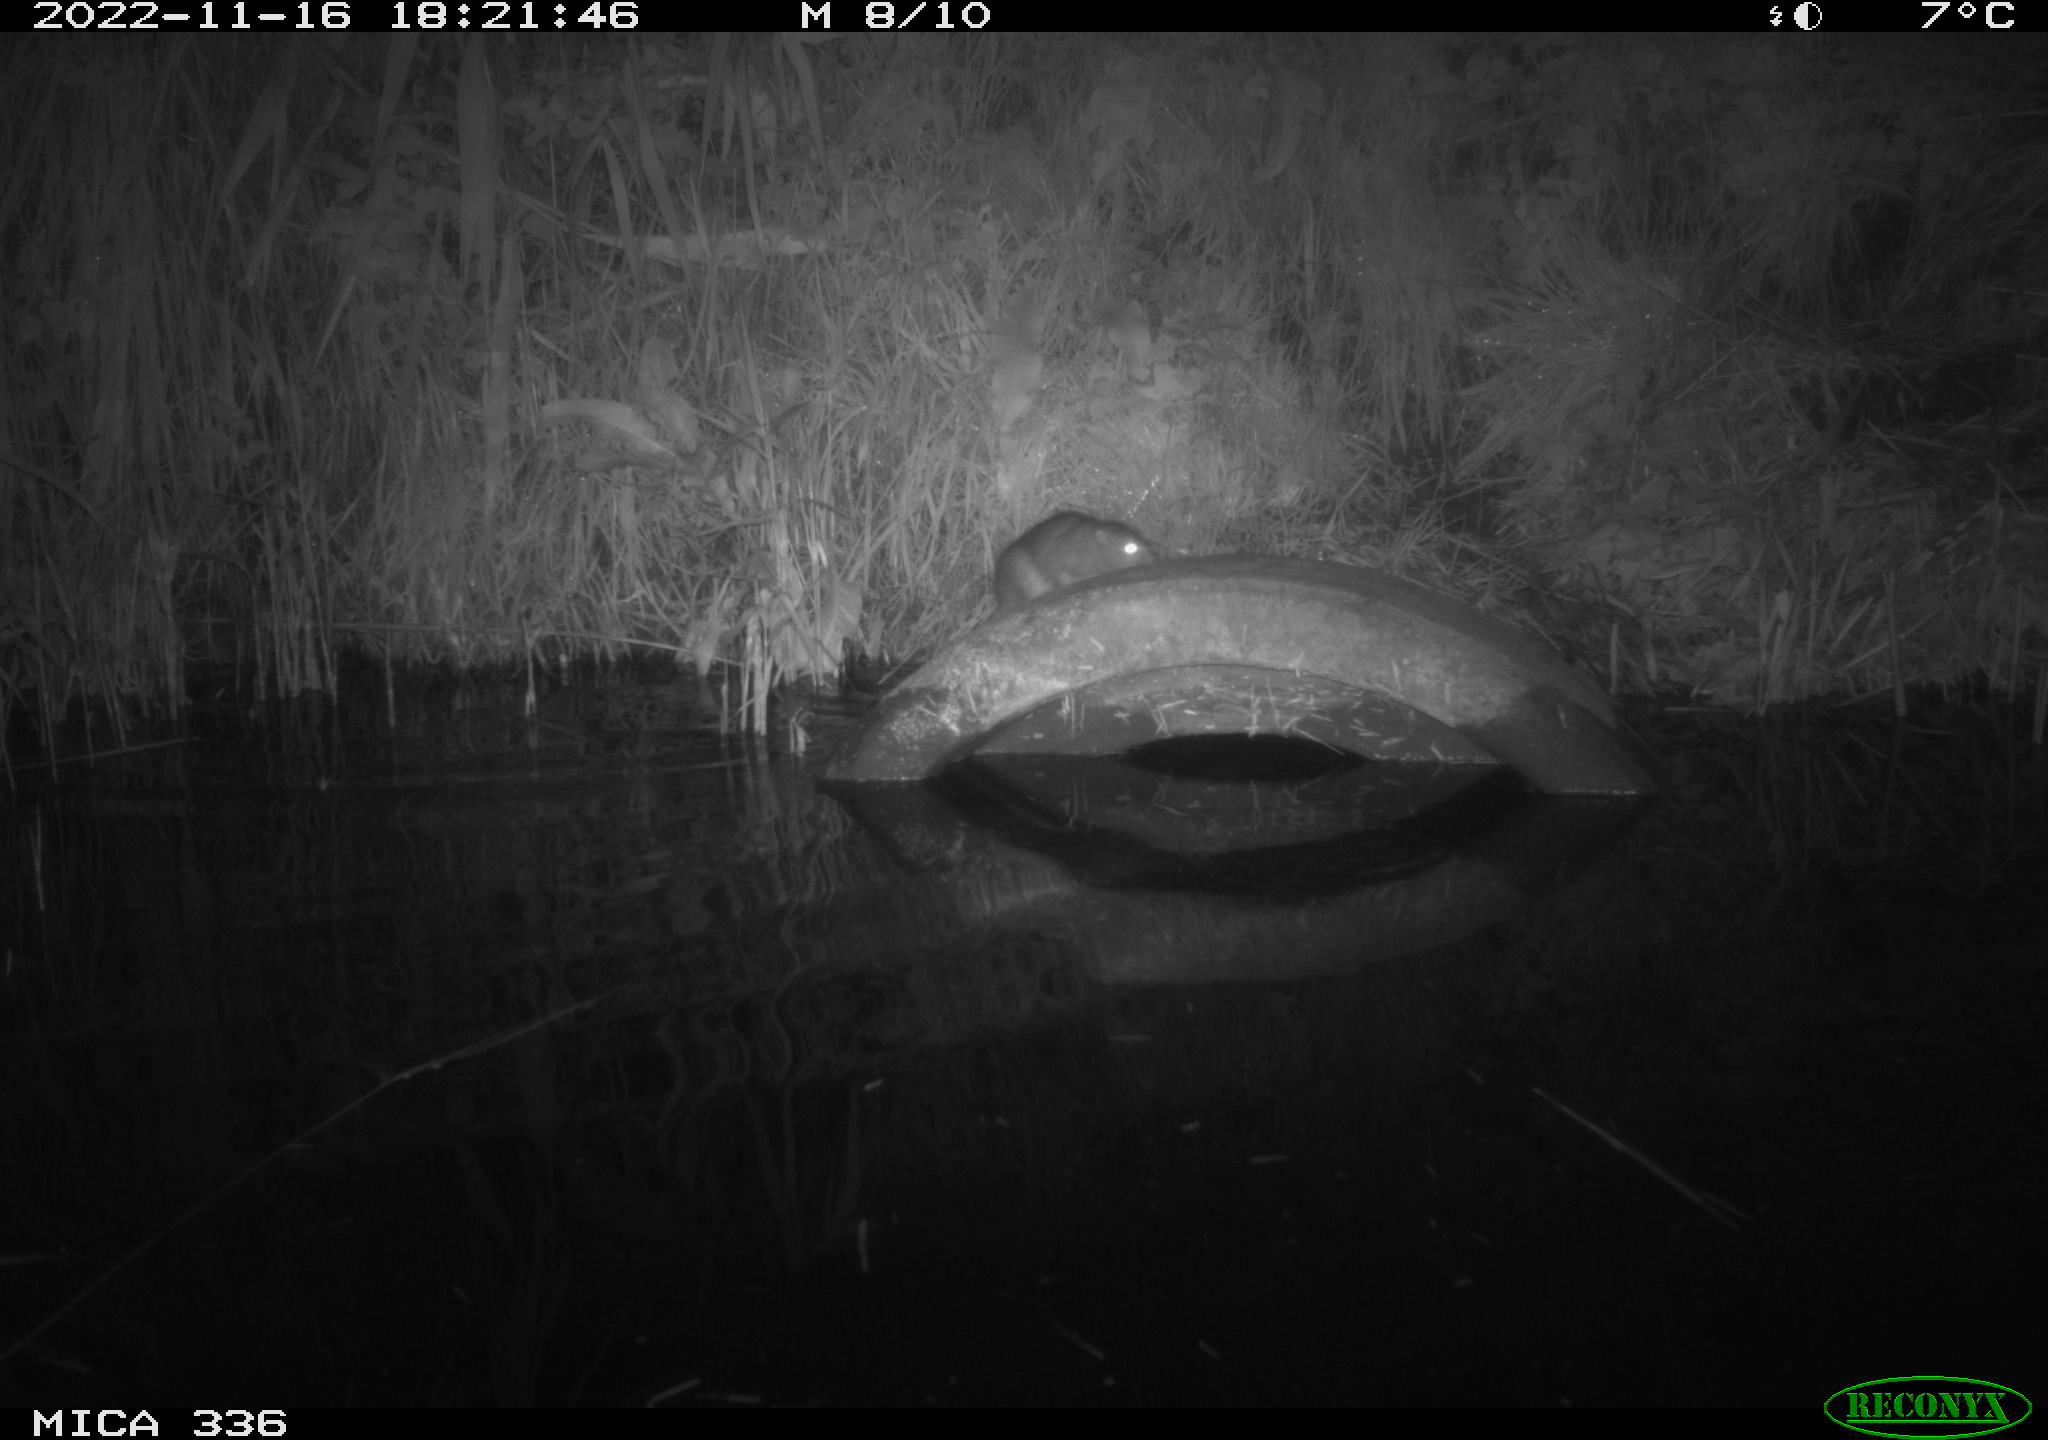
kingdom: Animalia
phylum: Chordata
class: Mammalia
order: Rodentia
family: Muridae
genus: Rattus
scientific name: Rattus norvegicus
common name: Brown rat
